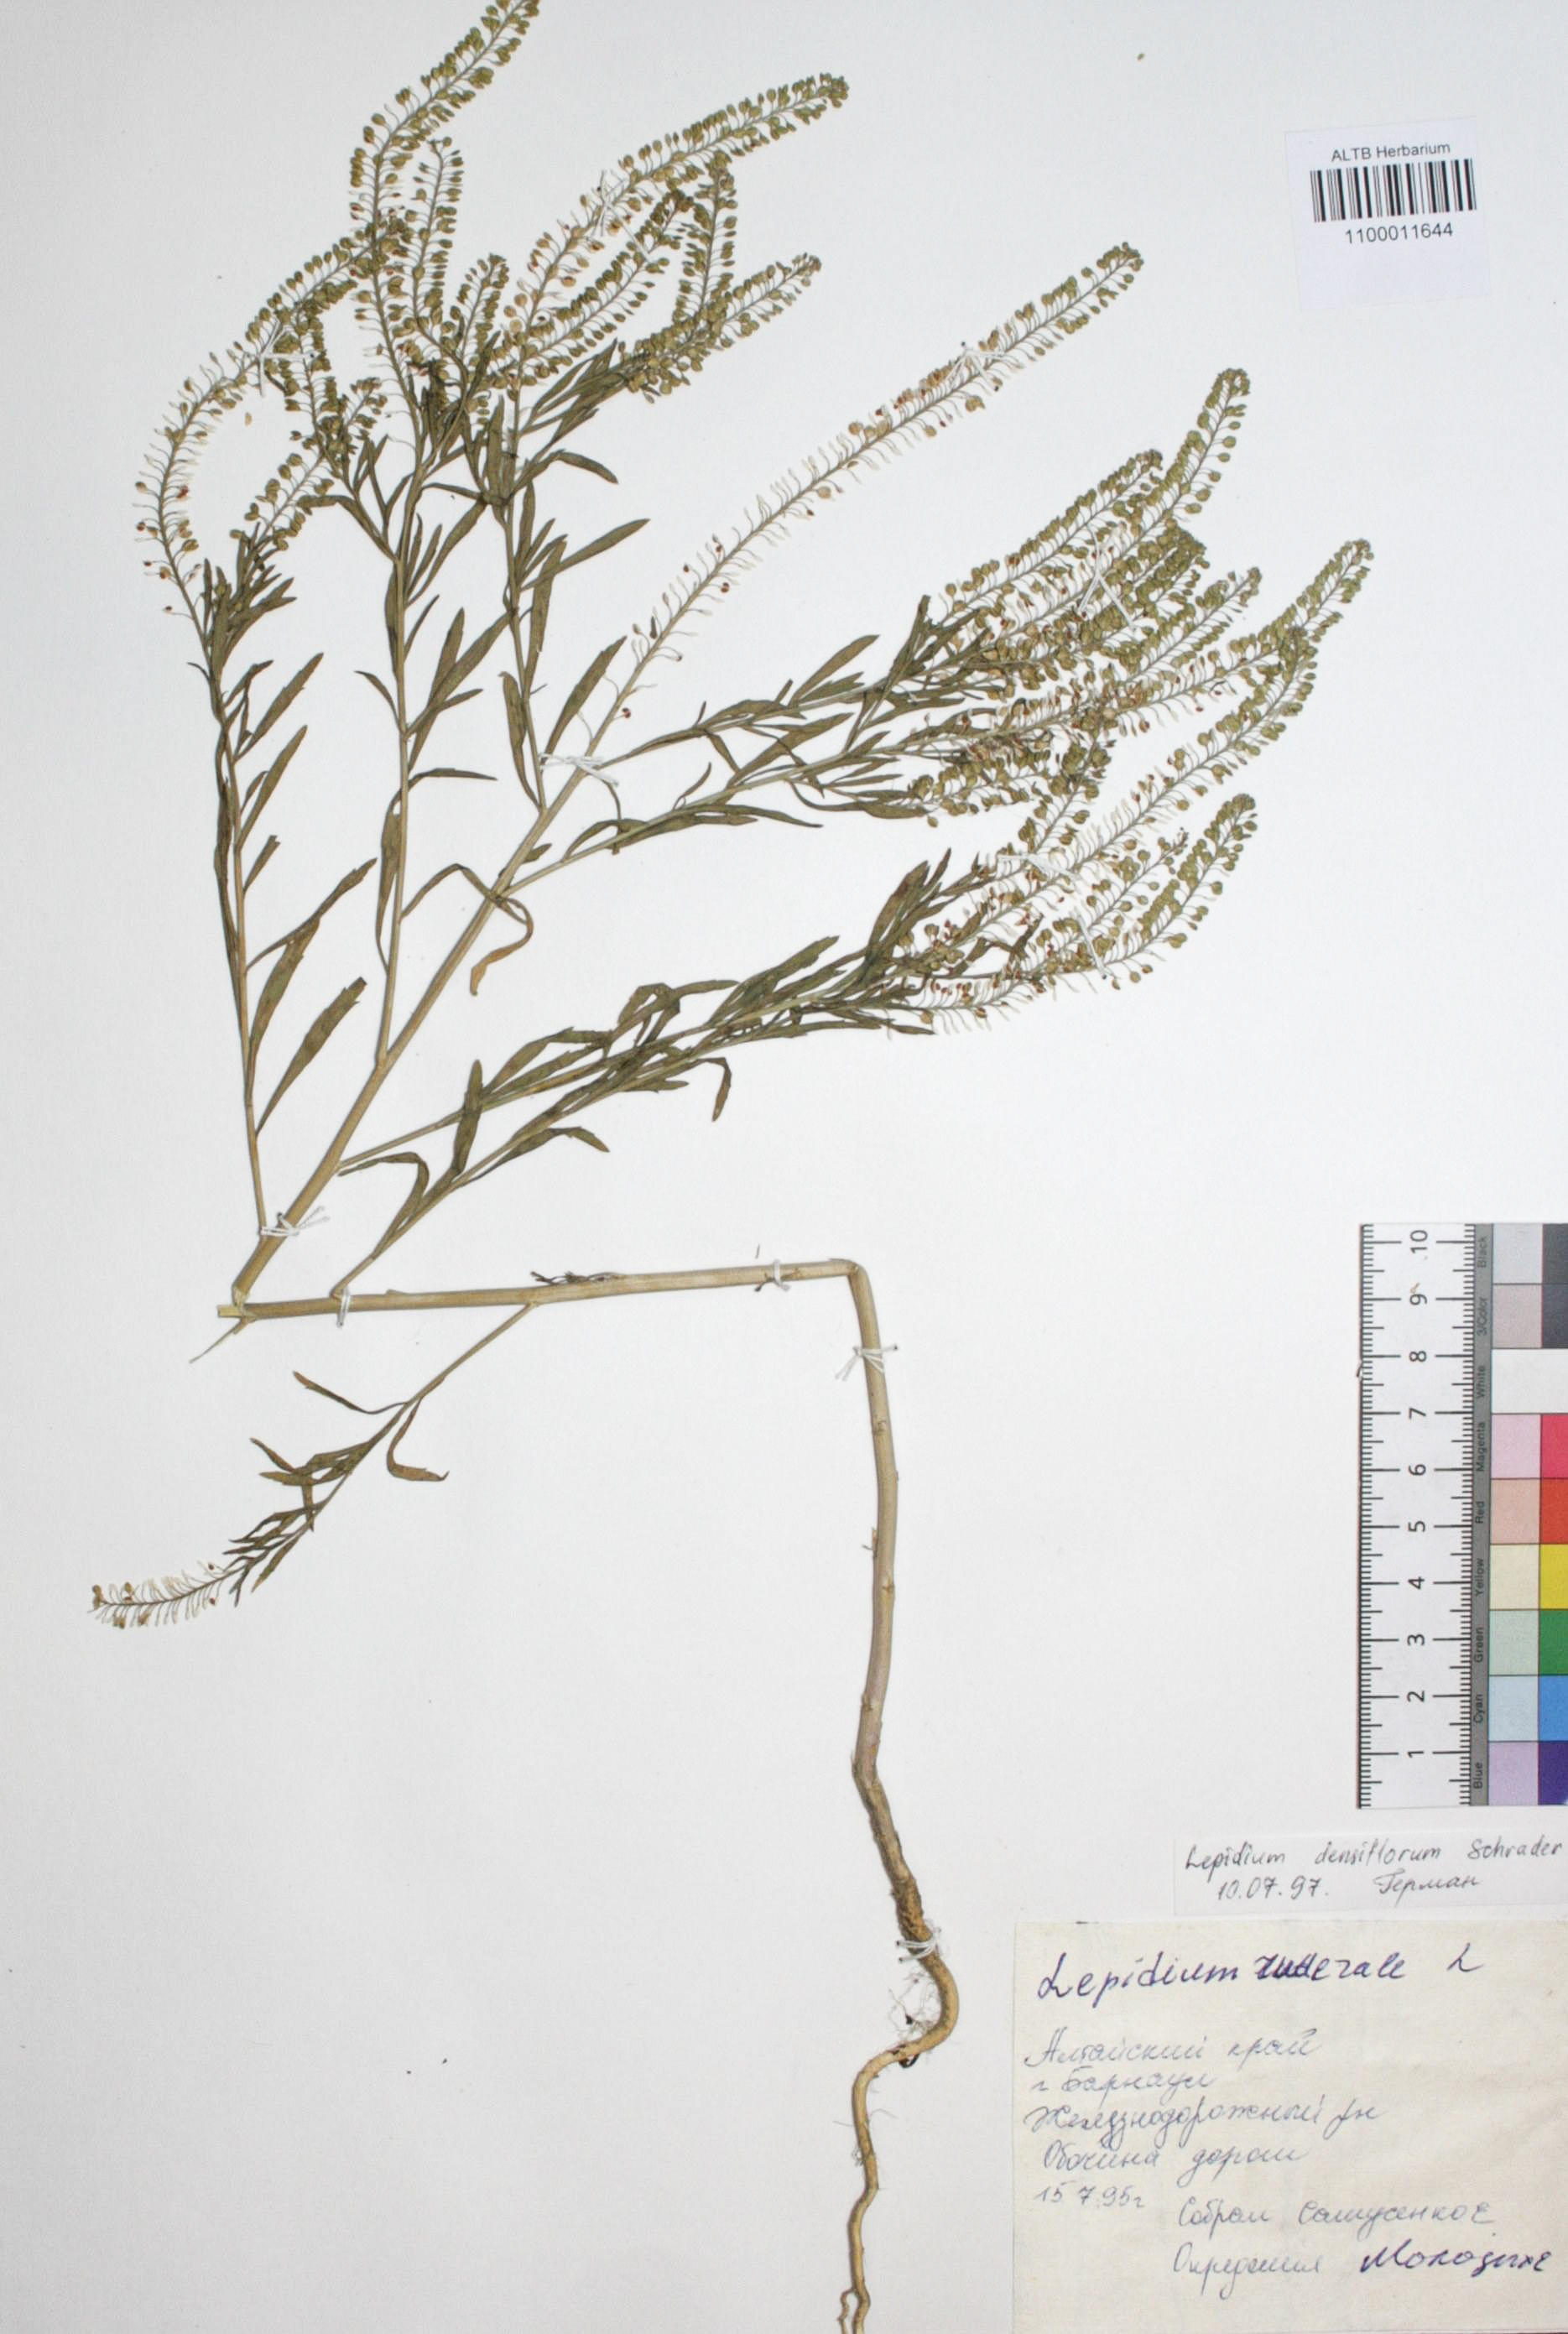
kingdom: Plantae
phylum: Tracheophyta
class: Magnoliopsida
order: Brassicales
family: Brassicaceae
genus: Lepidium
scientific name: Lepidium densiflorum
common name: Miner's pepperwort
